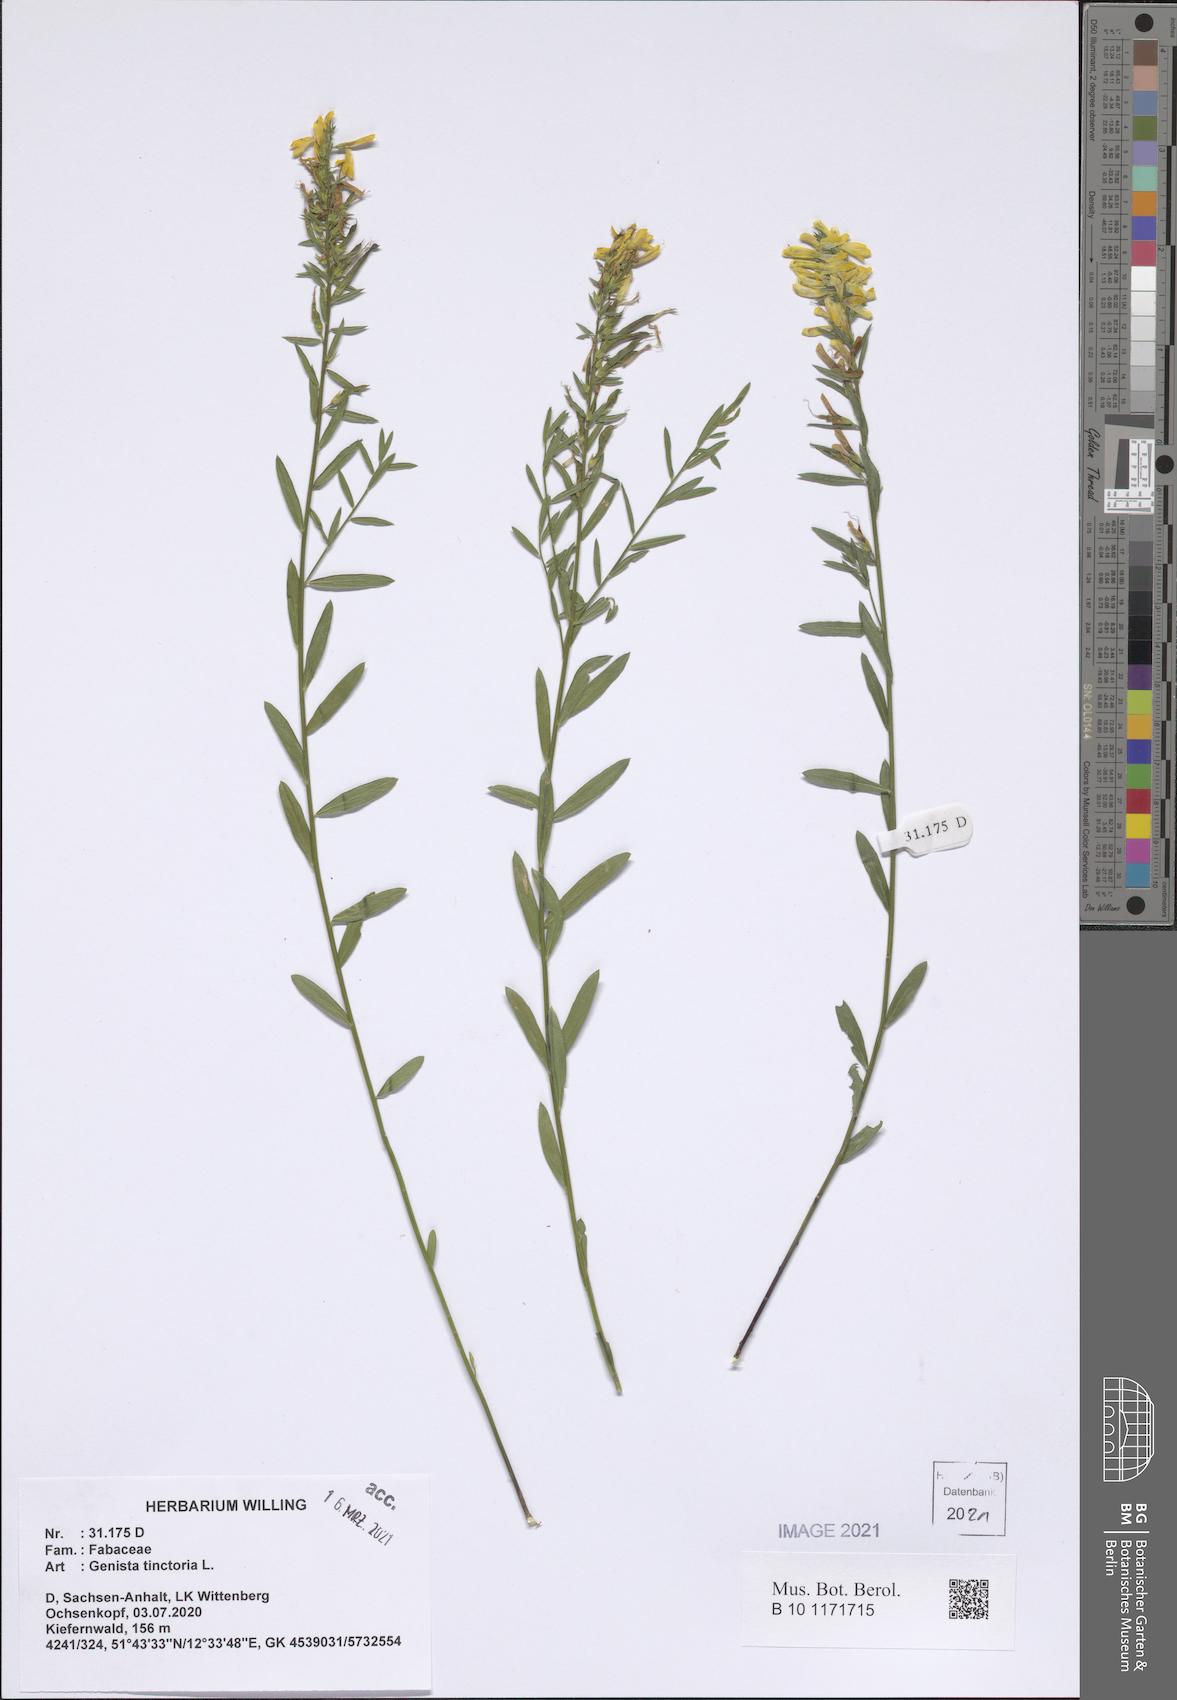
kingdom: Plantae
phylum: Tracheophyta
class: Magnoliopsida
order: Fabales
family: Fabaceae
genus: Genista
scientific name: Genista tinctoria
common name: Dyer's greenweed
